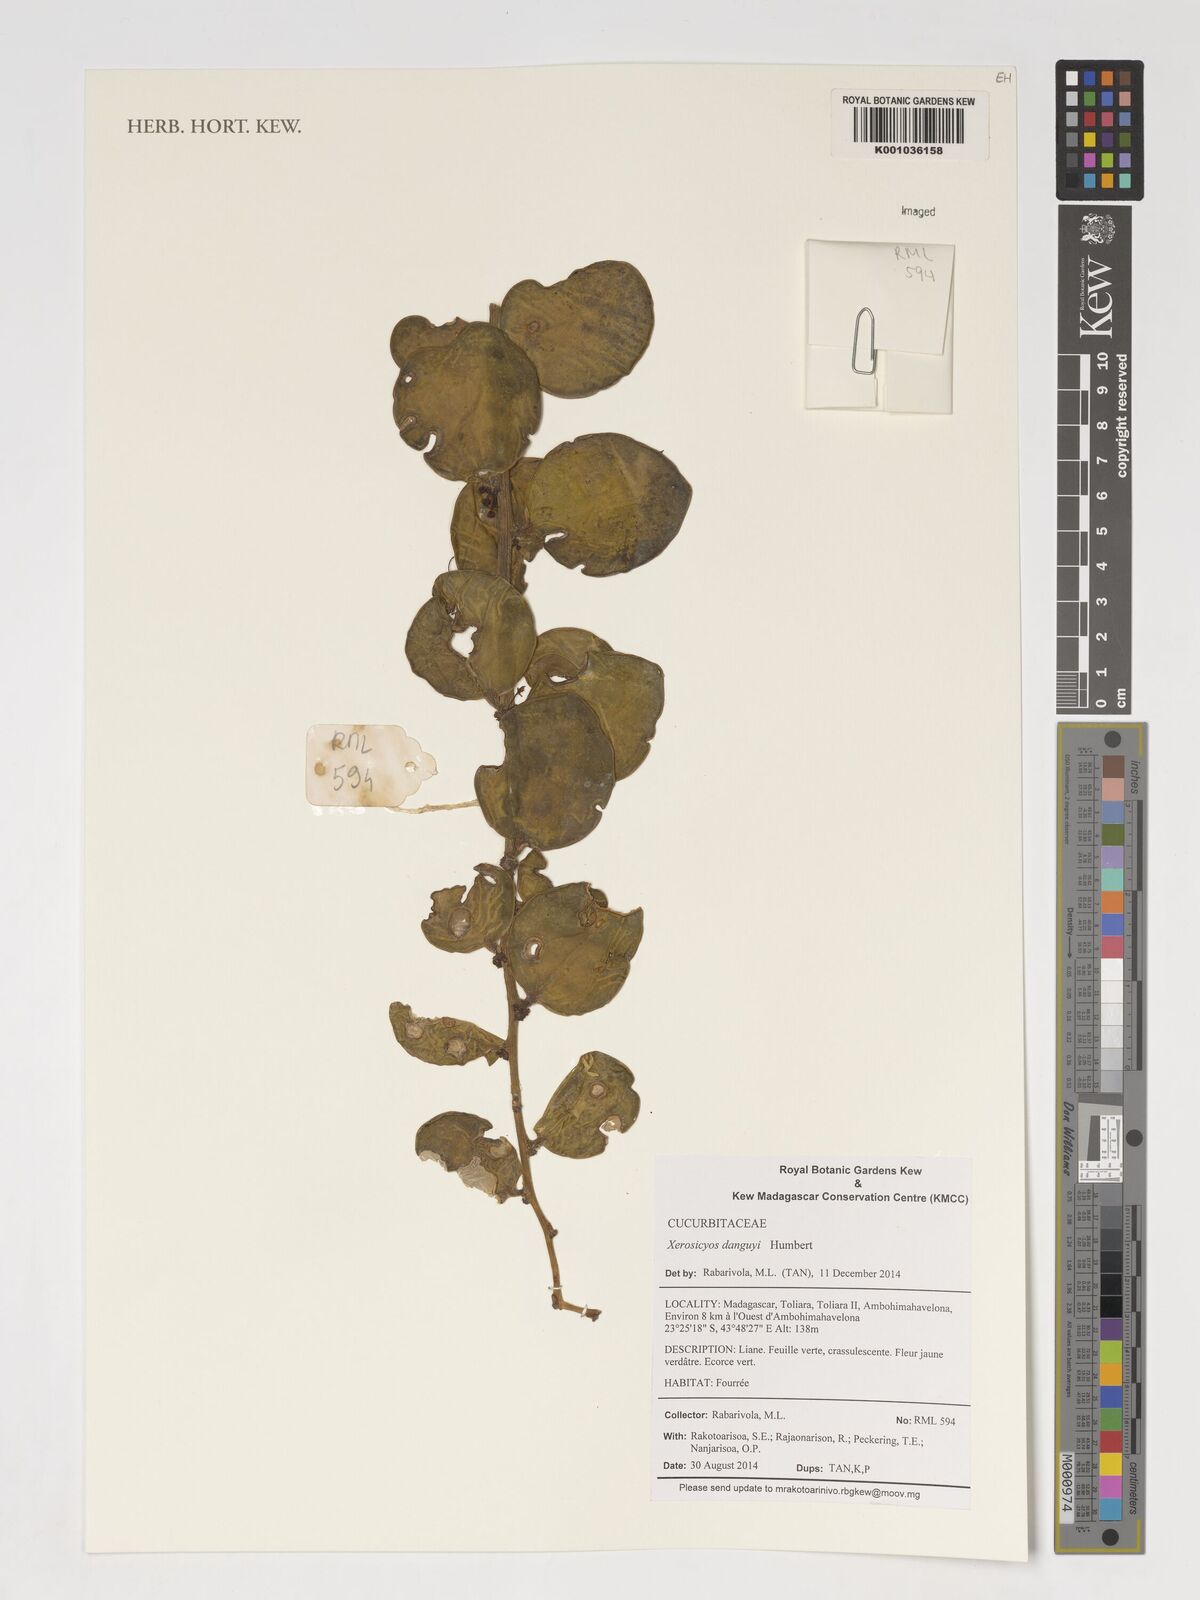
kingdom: Plantae
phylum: Tracheophyta
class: Magnoliopsida
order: Cucurbitales
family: Cucurbitaceae
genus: Xerosicyos
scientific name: Xerosicyos danguyi
